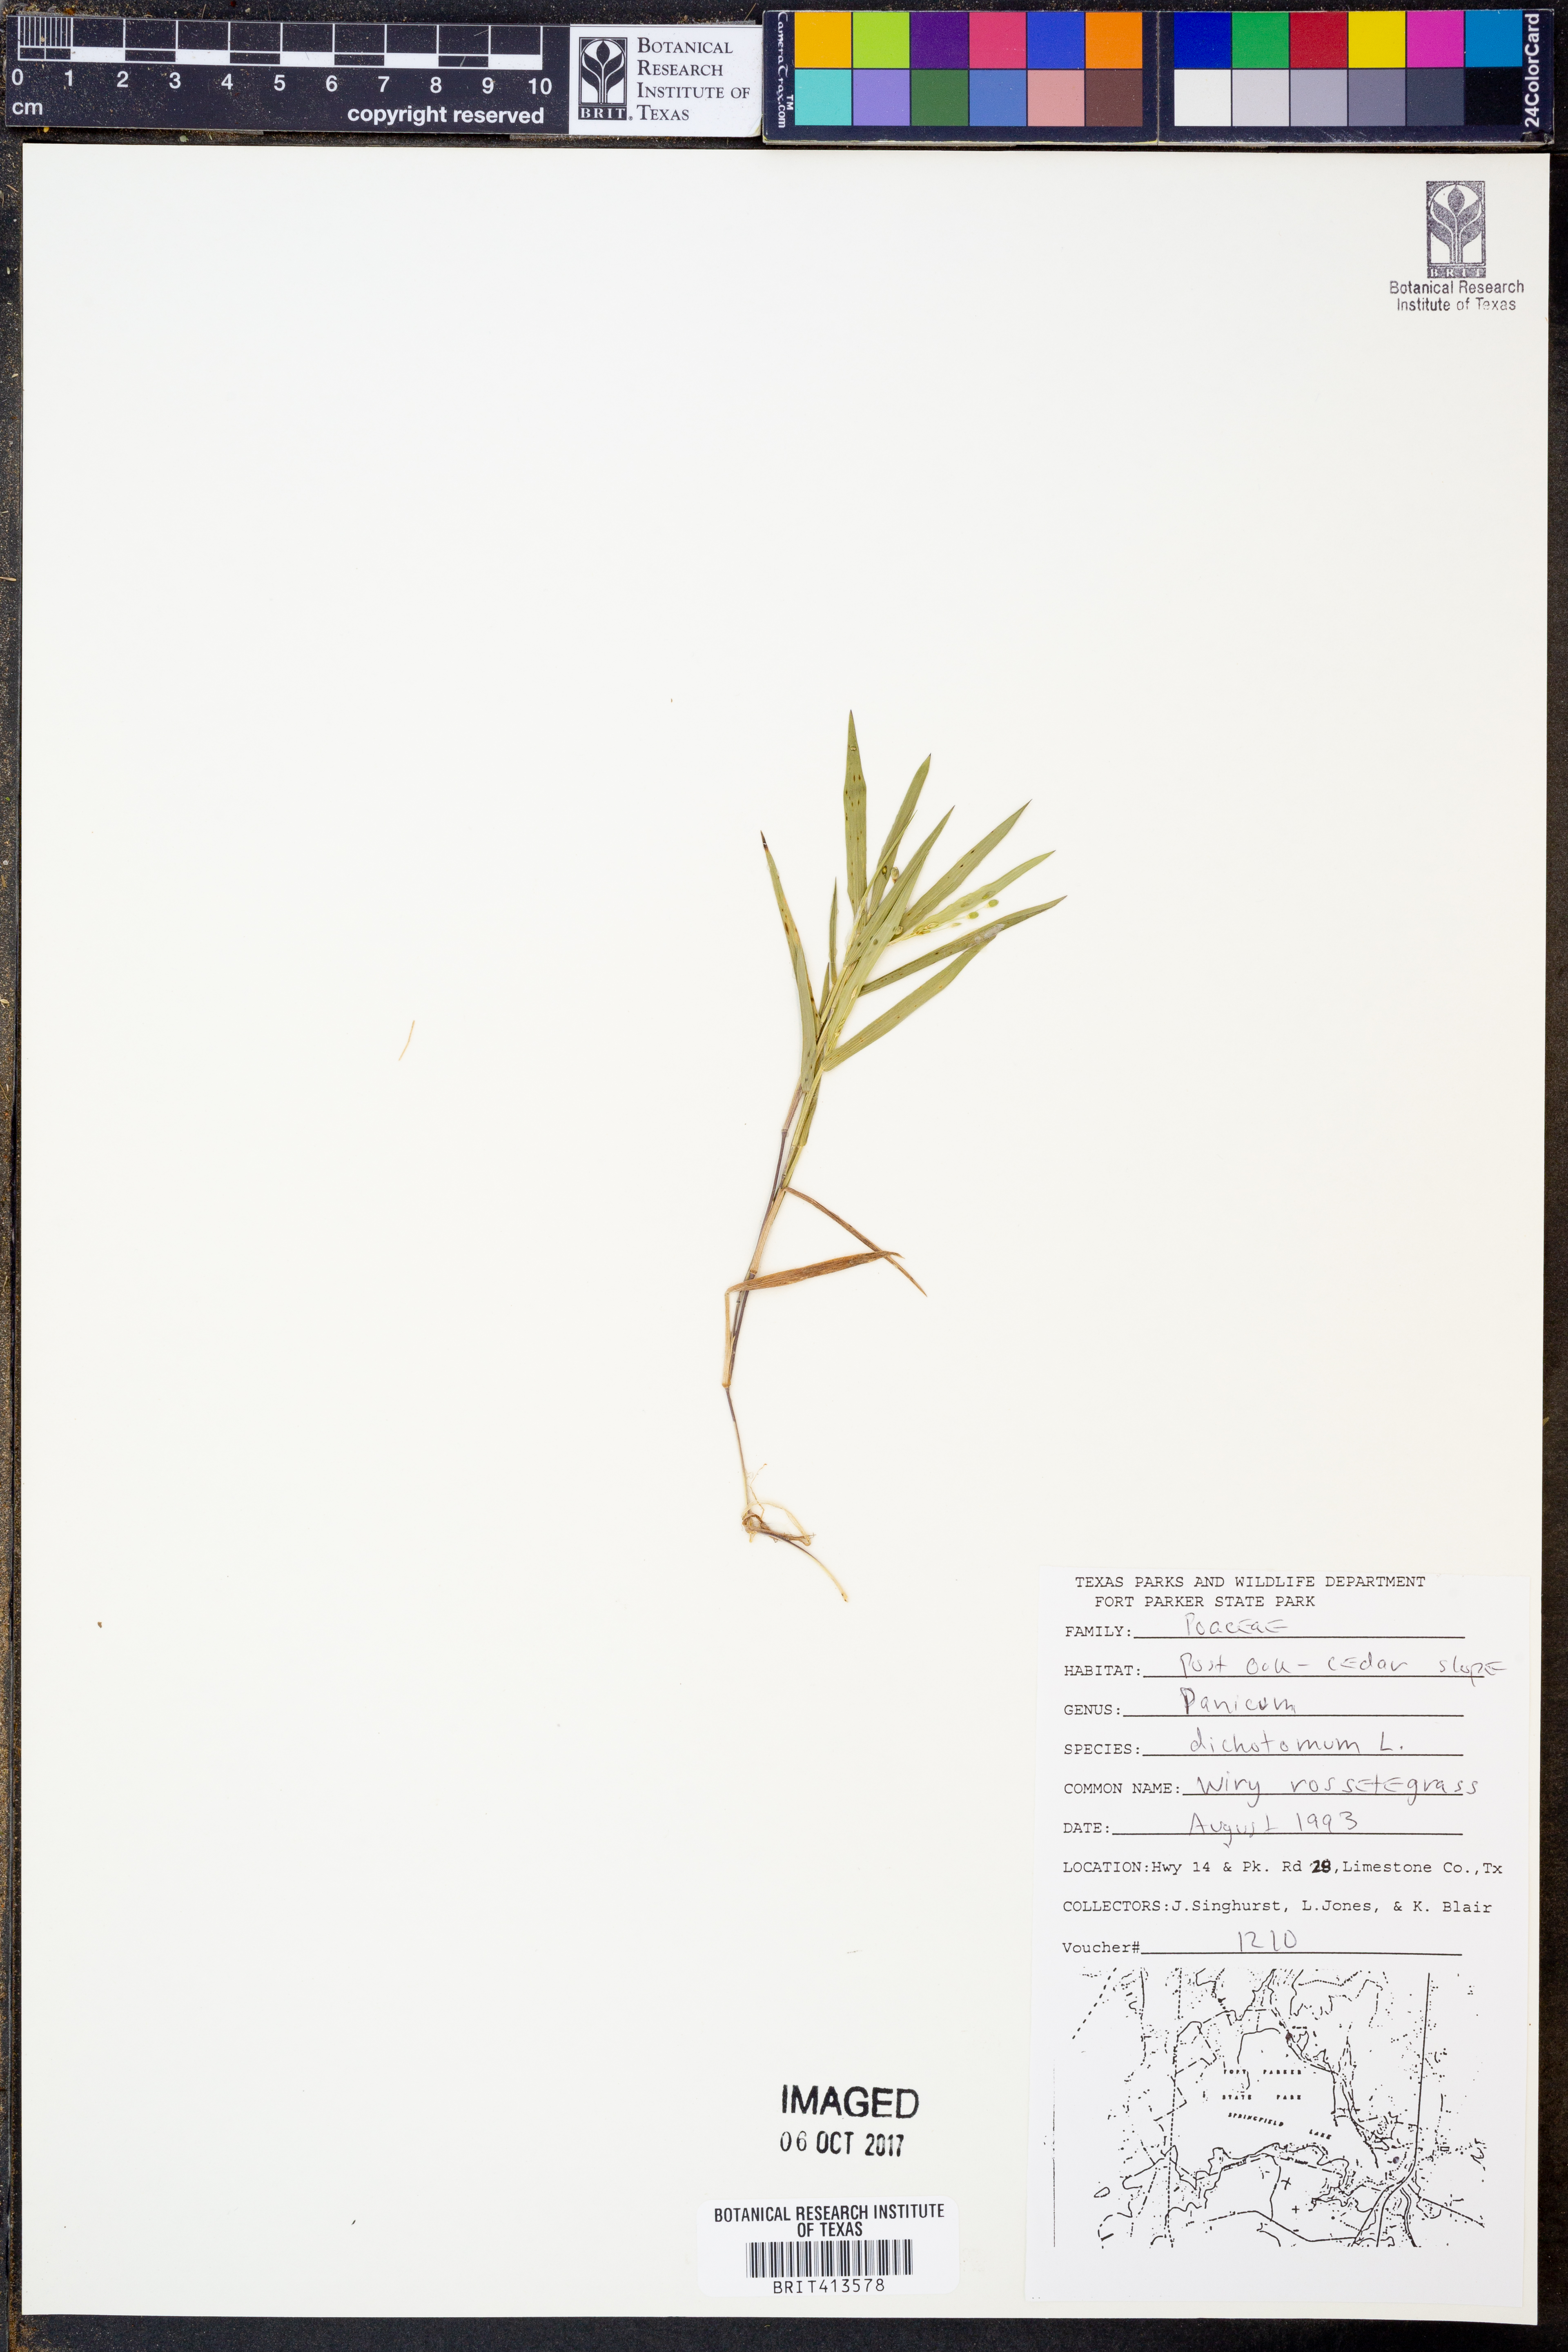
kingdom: Plantae
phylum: Tracheophyta
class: Liliopsida
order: Poales
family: Poaceae
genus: Dichanthelium
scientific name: Dichanthelium dichotomum
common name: Cypress panicgrass
